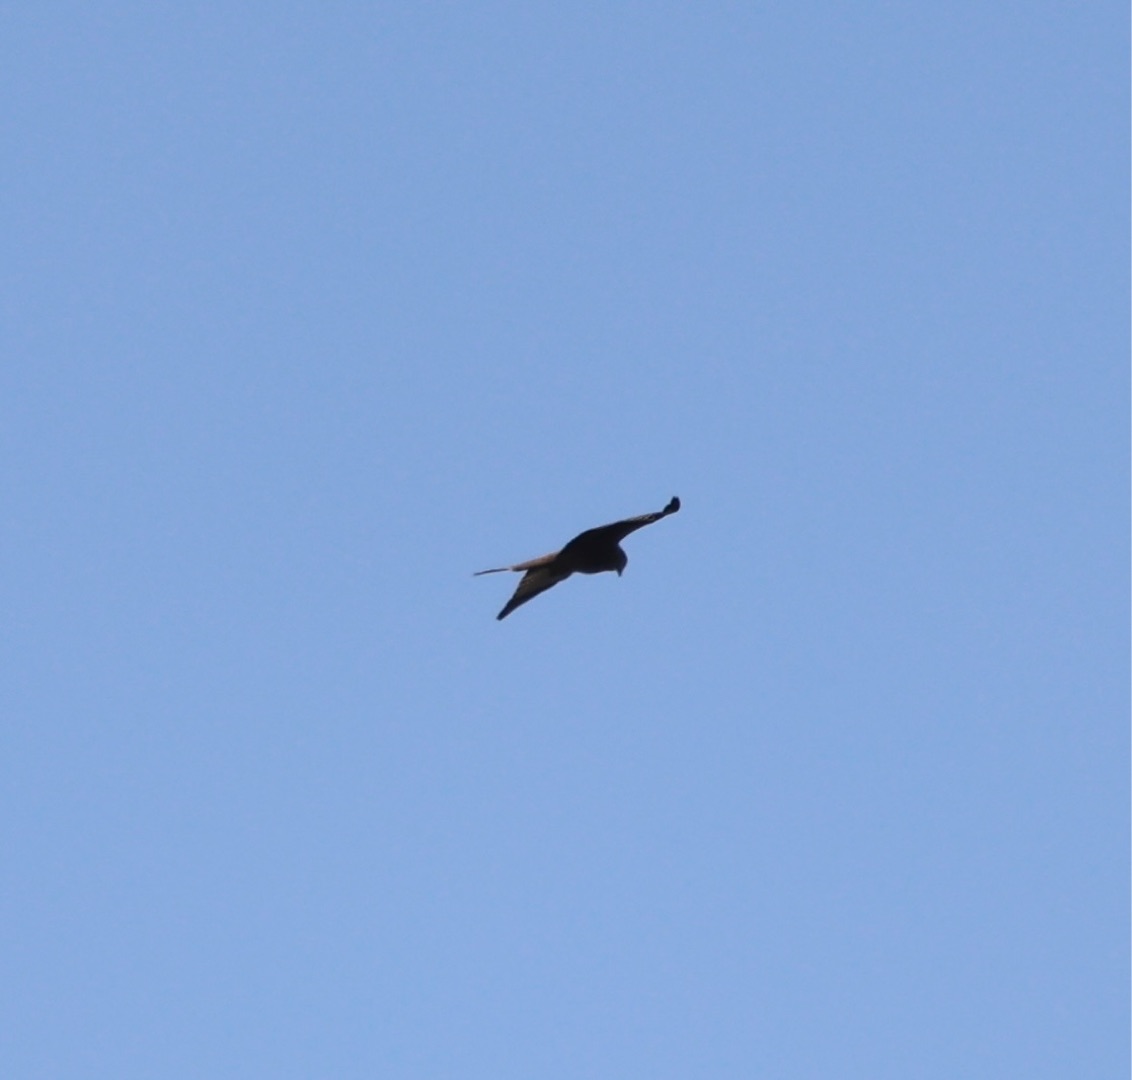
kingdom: Animalia
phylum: Chordata
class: Aves
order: Accipitriformes
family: Accipitridae
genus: Milvus
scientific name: Milvus milvus
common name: Rød glente
